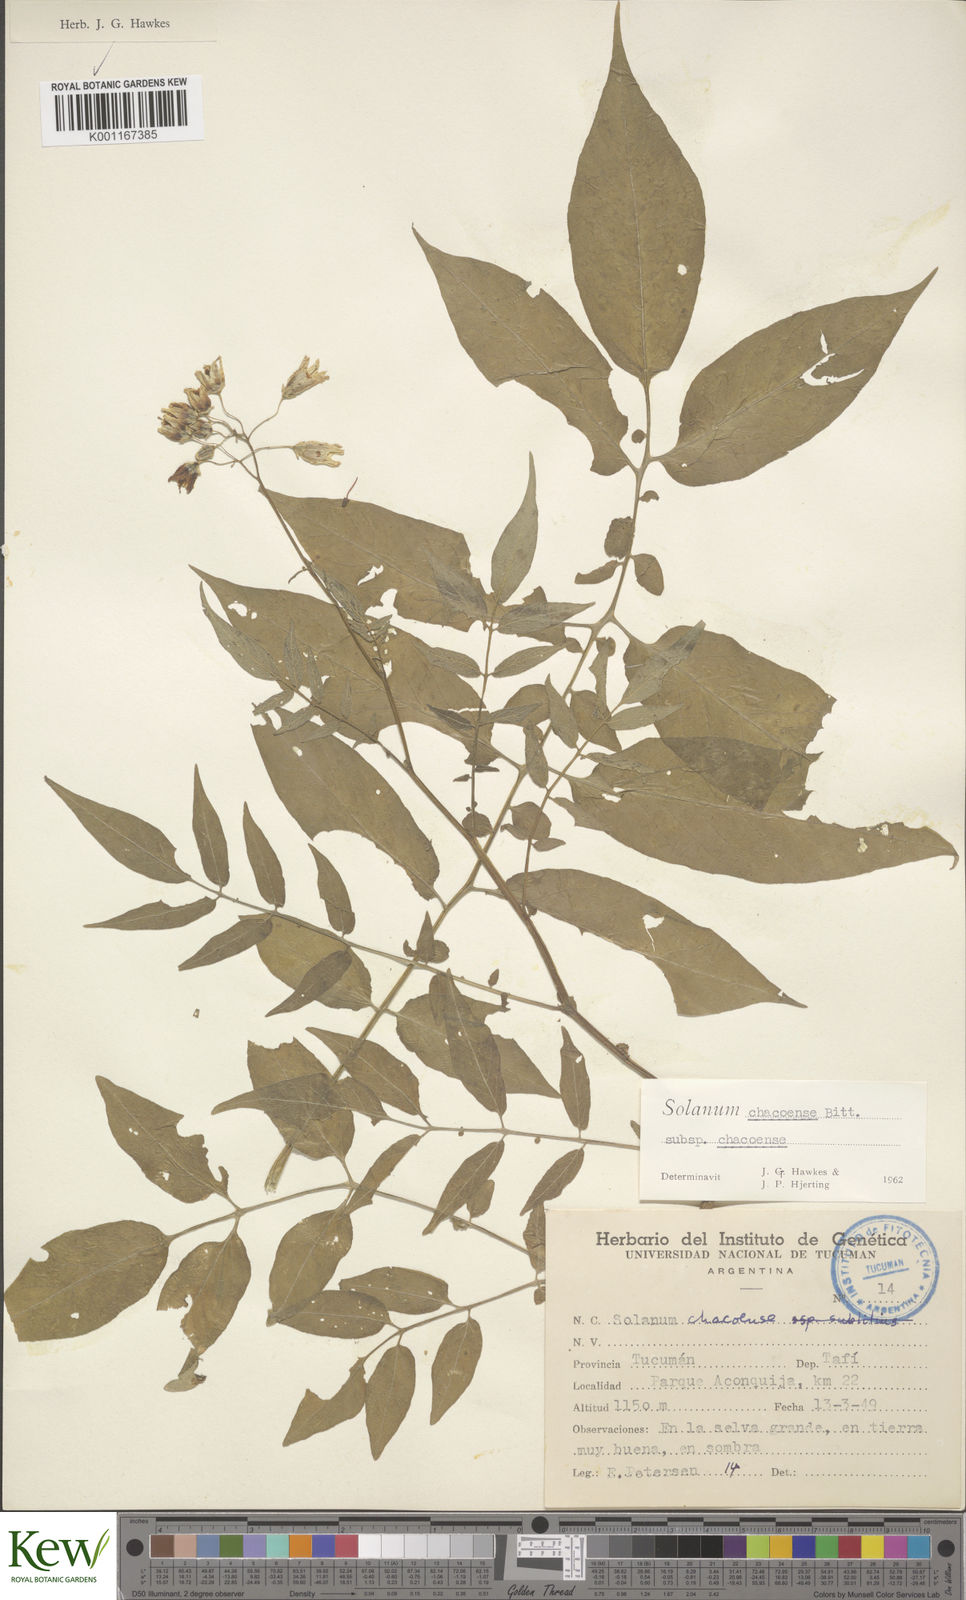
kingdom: Plantae
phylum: Tracheophyta
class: Magnoliopsida
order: Solanales
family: Solanaceae
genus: Solanum
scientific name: Solanum chacoense
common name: Chaco potato
